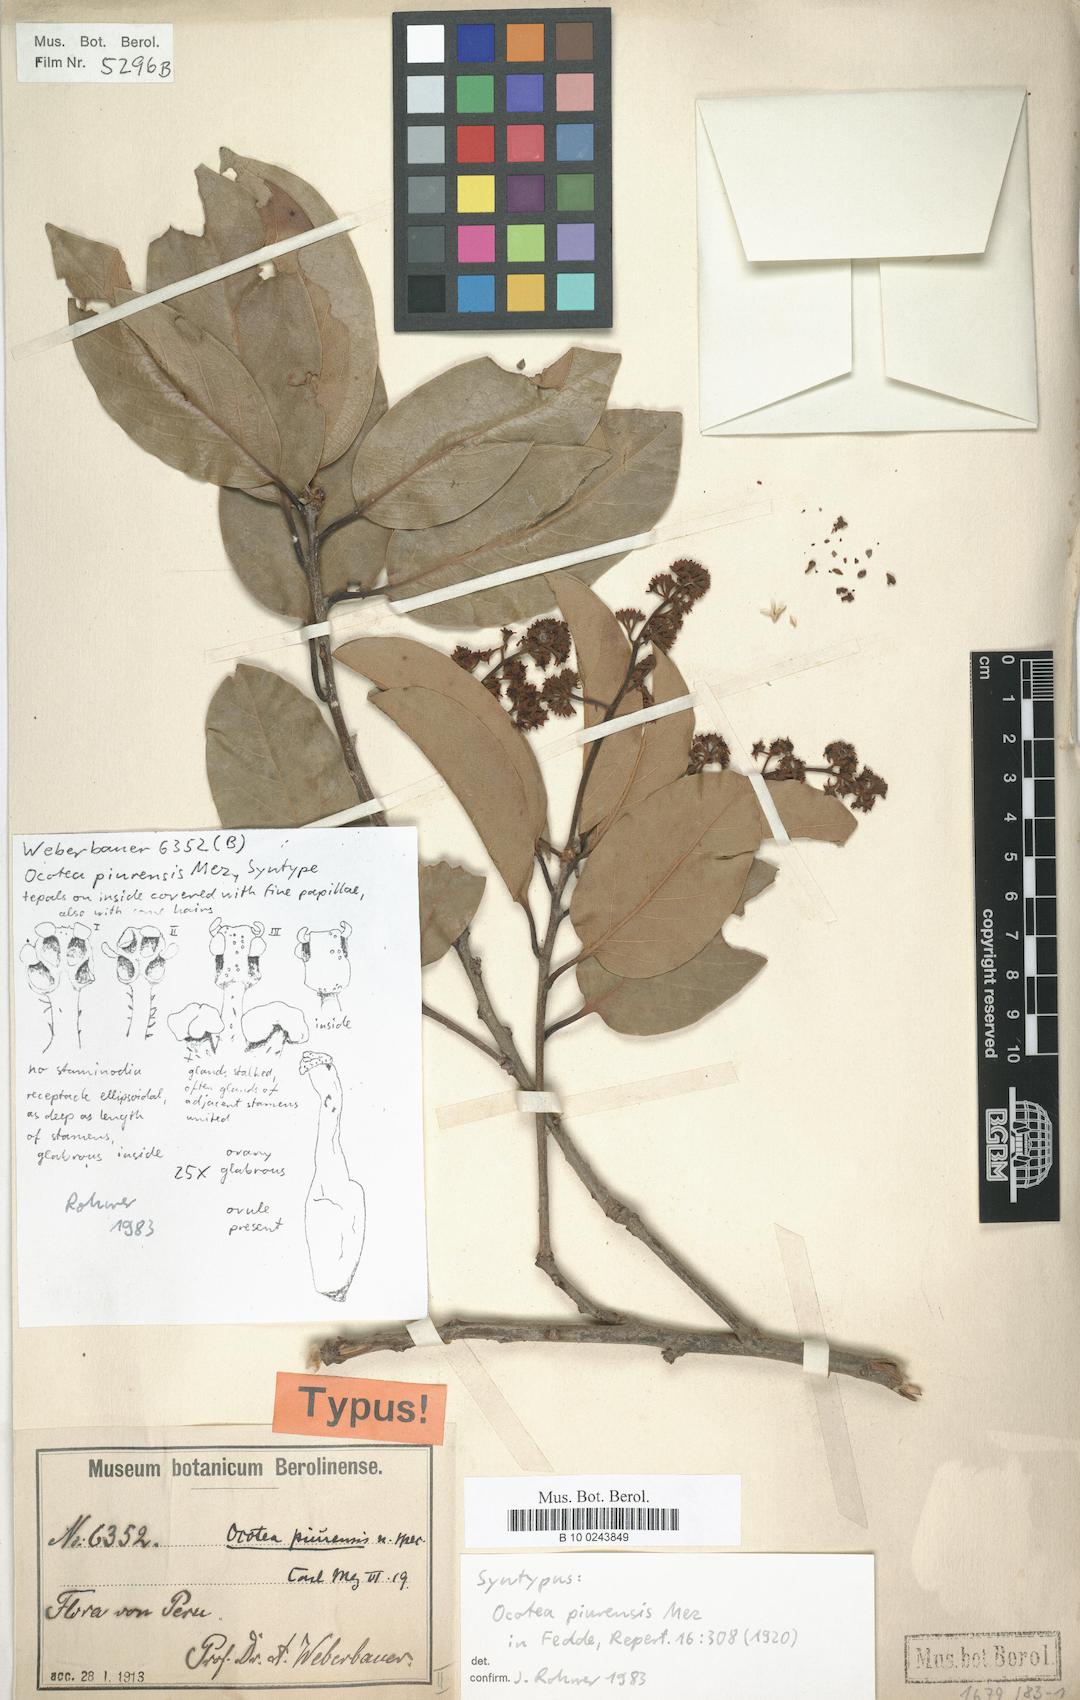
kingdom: Plantae
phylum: Tracheophyta
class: Magnoliopsida
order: Laurales
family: Lauraceae
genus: Ocotea
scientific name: Ocotea piurensis
